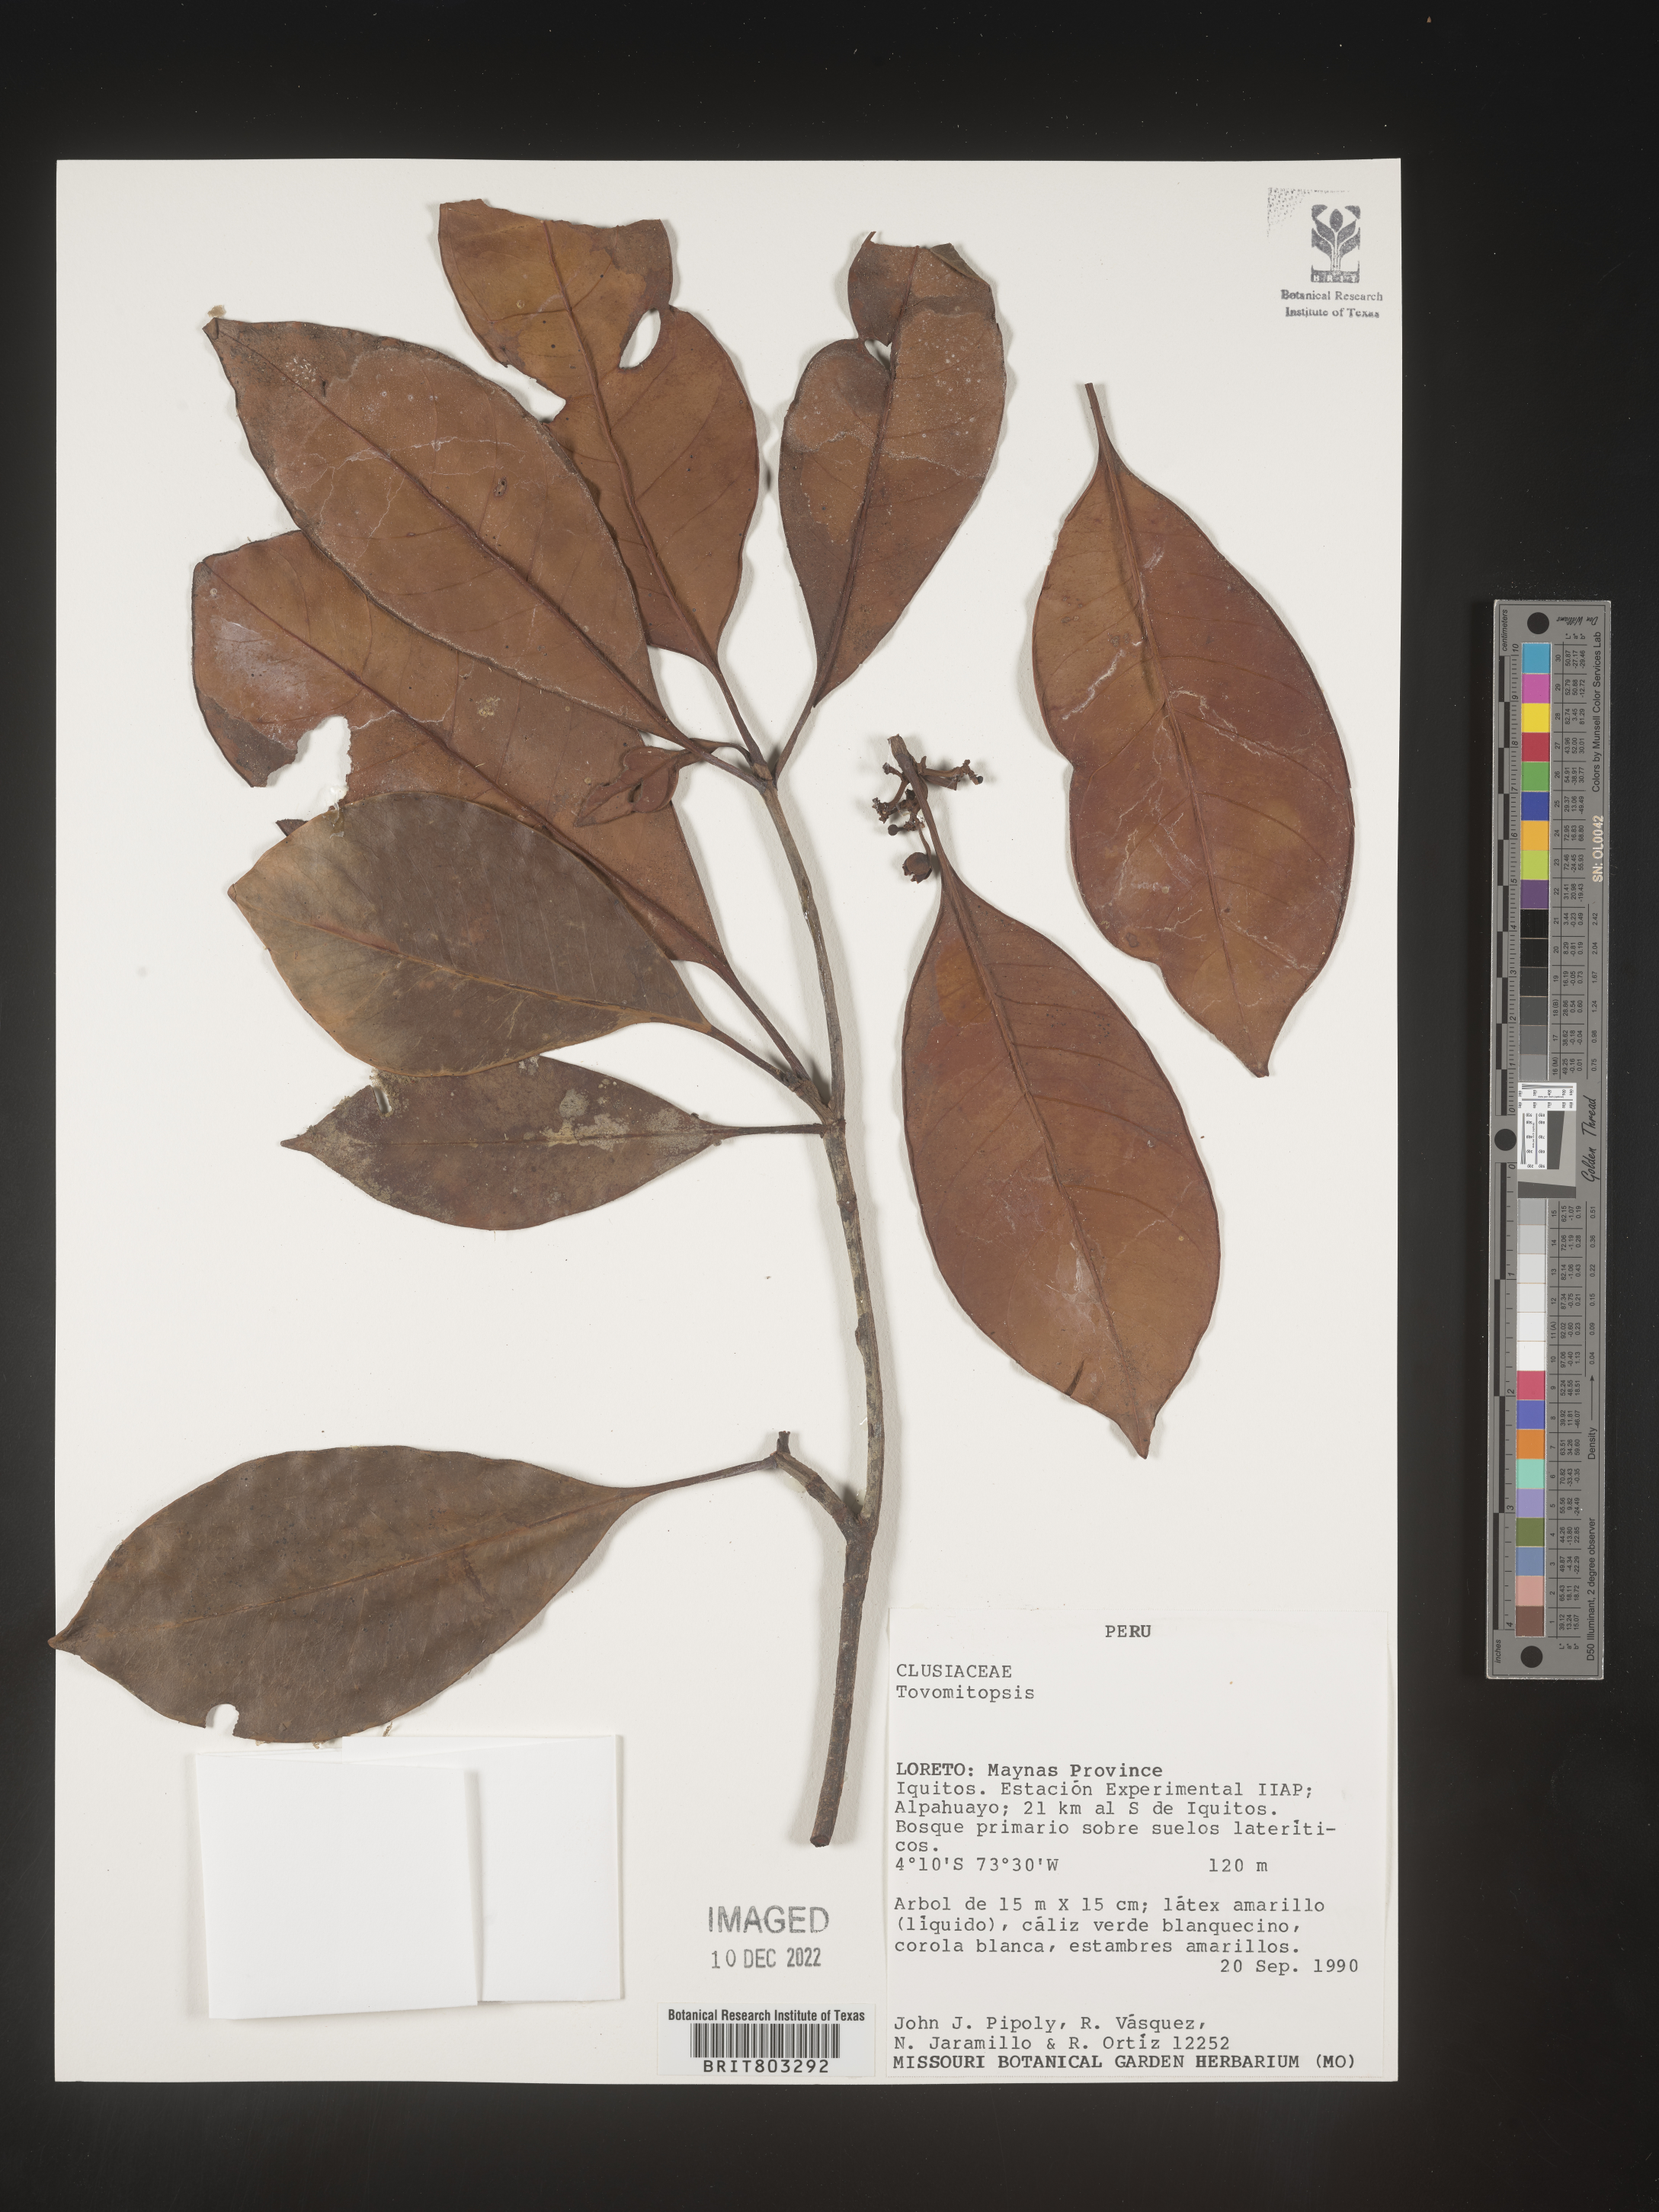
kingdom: Plantae
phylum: Tracheophyta
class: Magnoliopsida
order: Malpighiales
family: Clusiaceae
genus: Tovomita
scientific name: Tovomita
